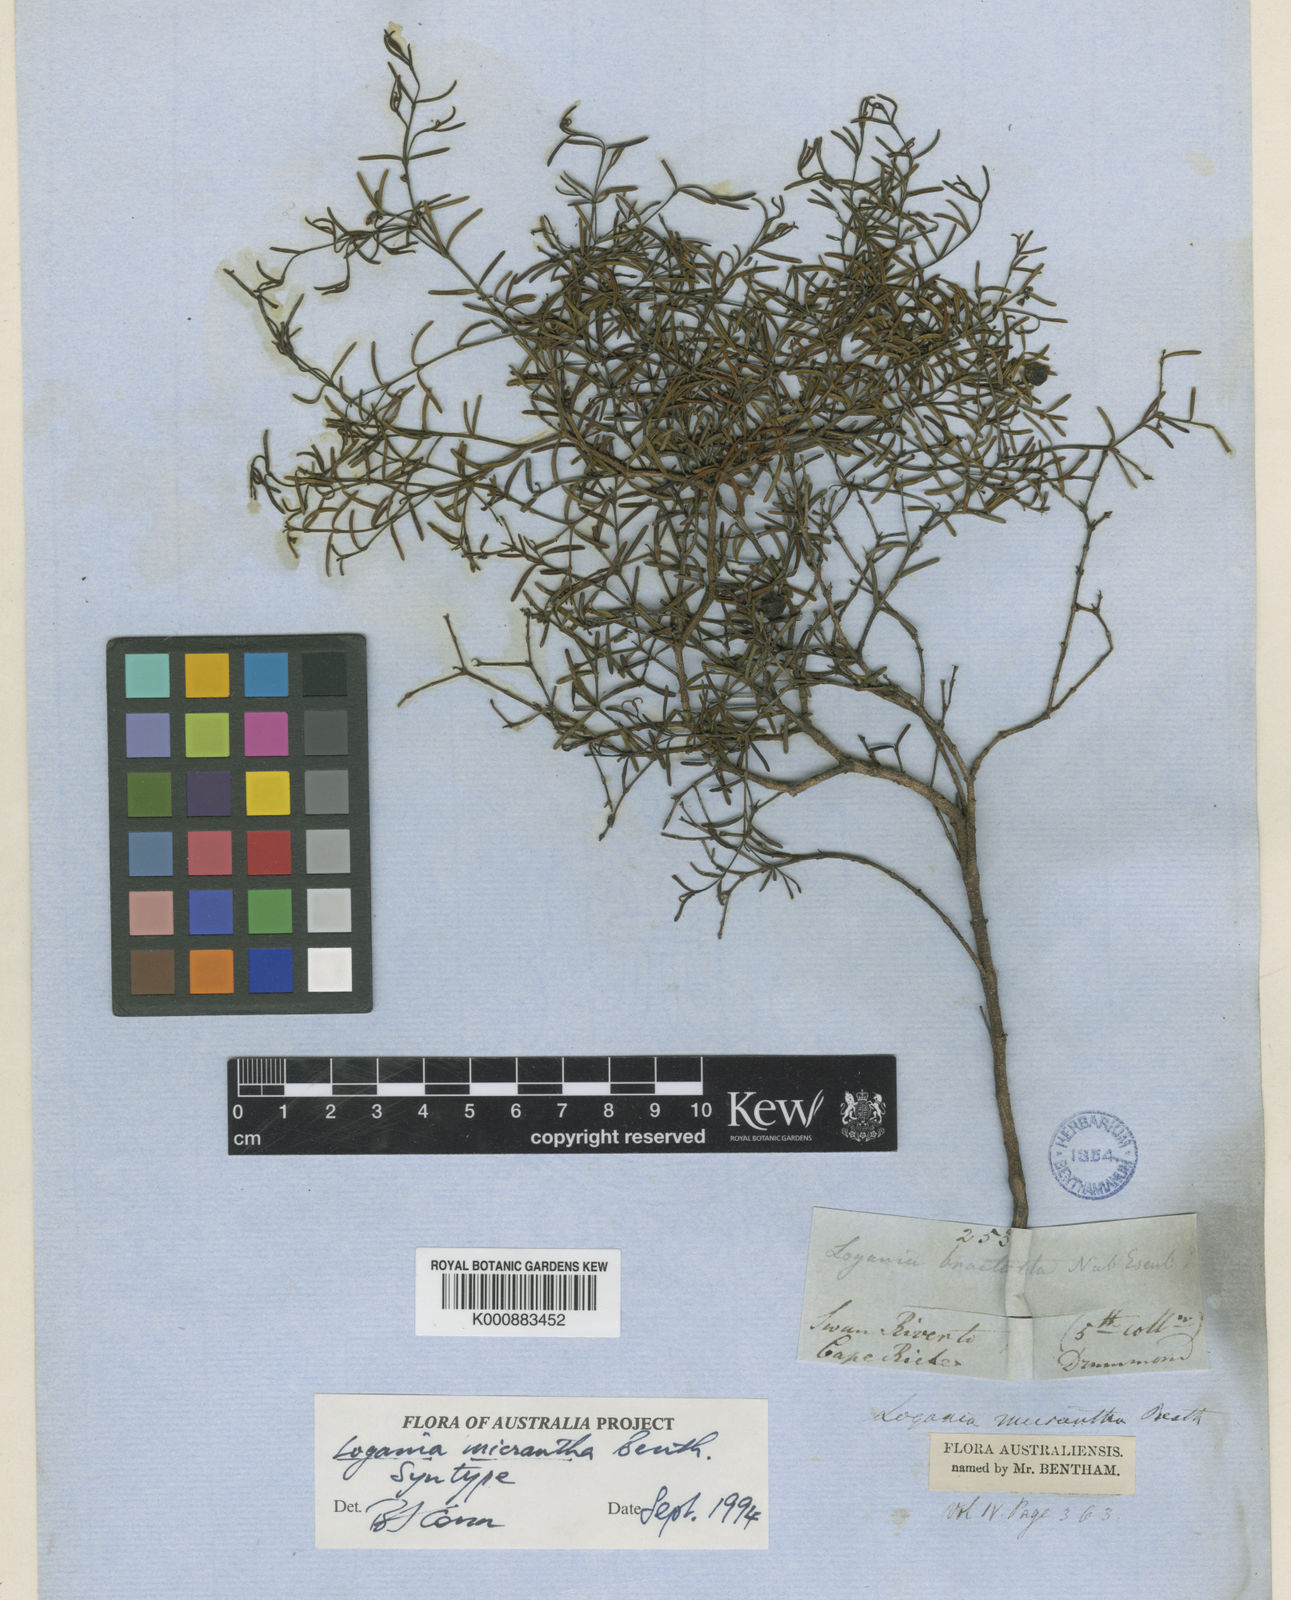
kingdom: Plantae
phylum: Tracheophyta
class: Magnoliopsida
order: Gentianales
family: Loganiaceae
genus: Logania
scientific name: Logania micrantha
